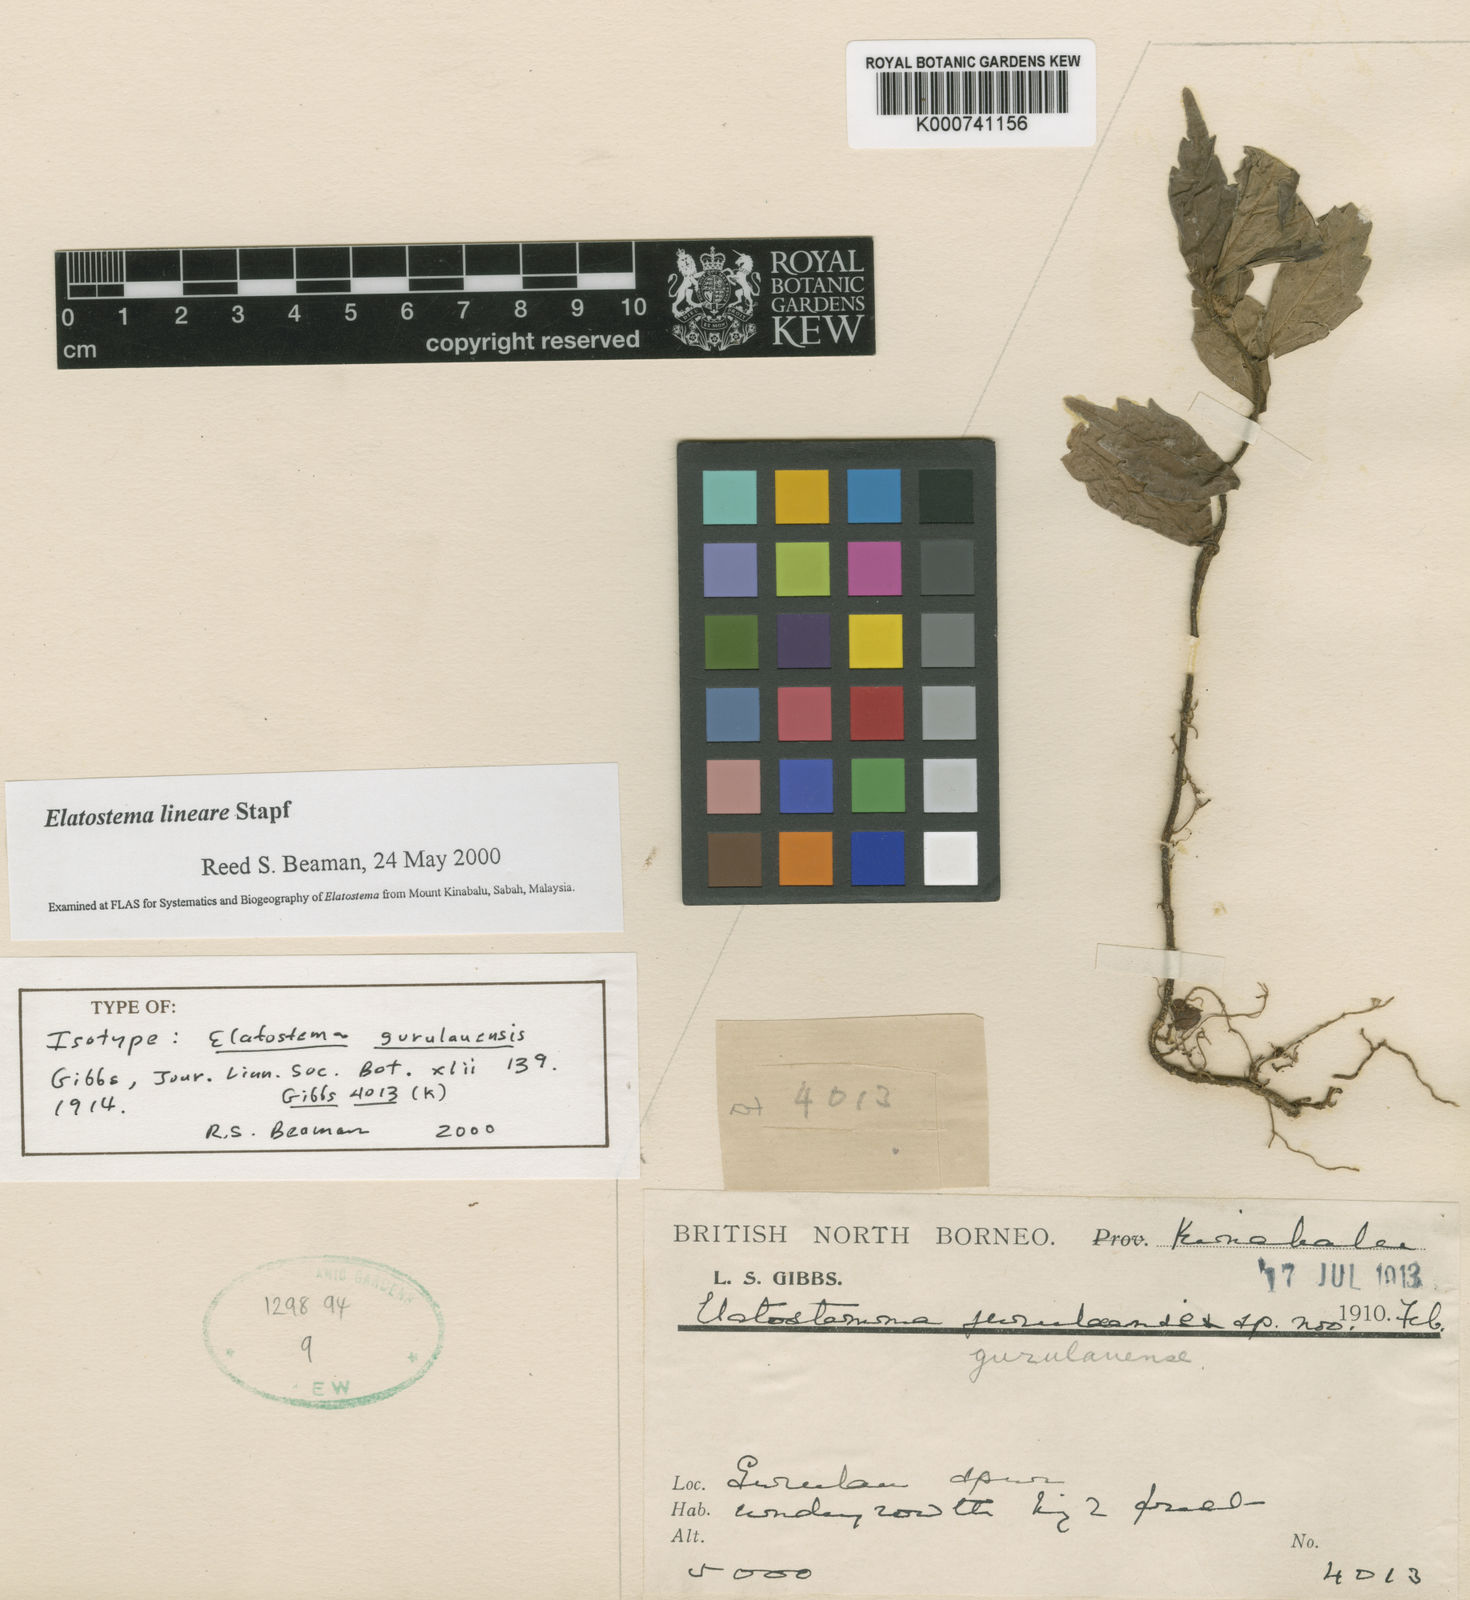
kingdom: Plantae
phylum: Tracheophyta
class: Magnoliopsida
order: Rosales
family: Urticaceae
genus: Elatostema
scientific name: Elatostema lineare
